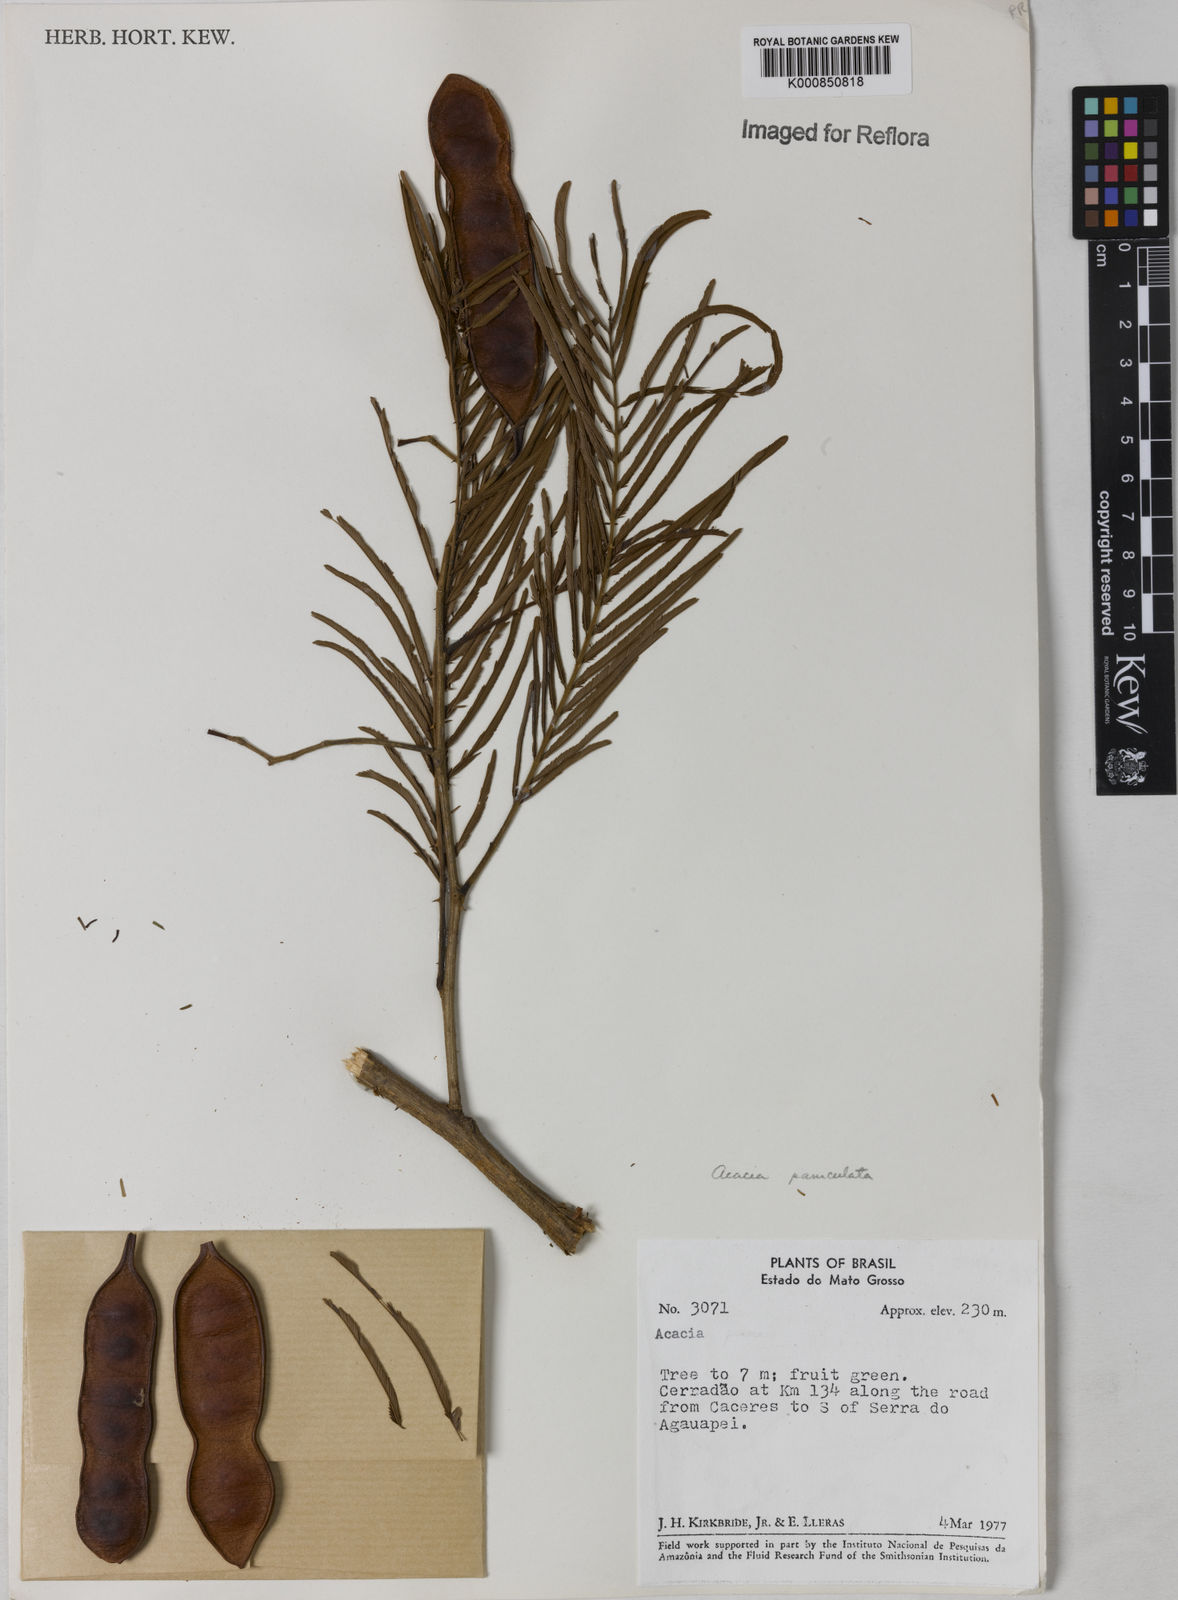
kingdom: Plantae
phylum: Tracheophyta
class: Magnoliopsida
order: Fabales
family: Fabaceae
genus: Senegalia
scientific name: Senegalia tenuifolia
